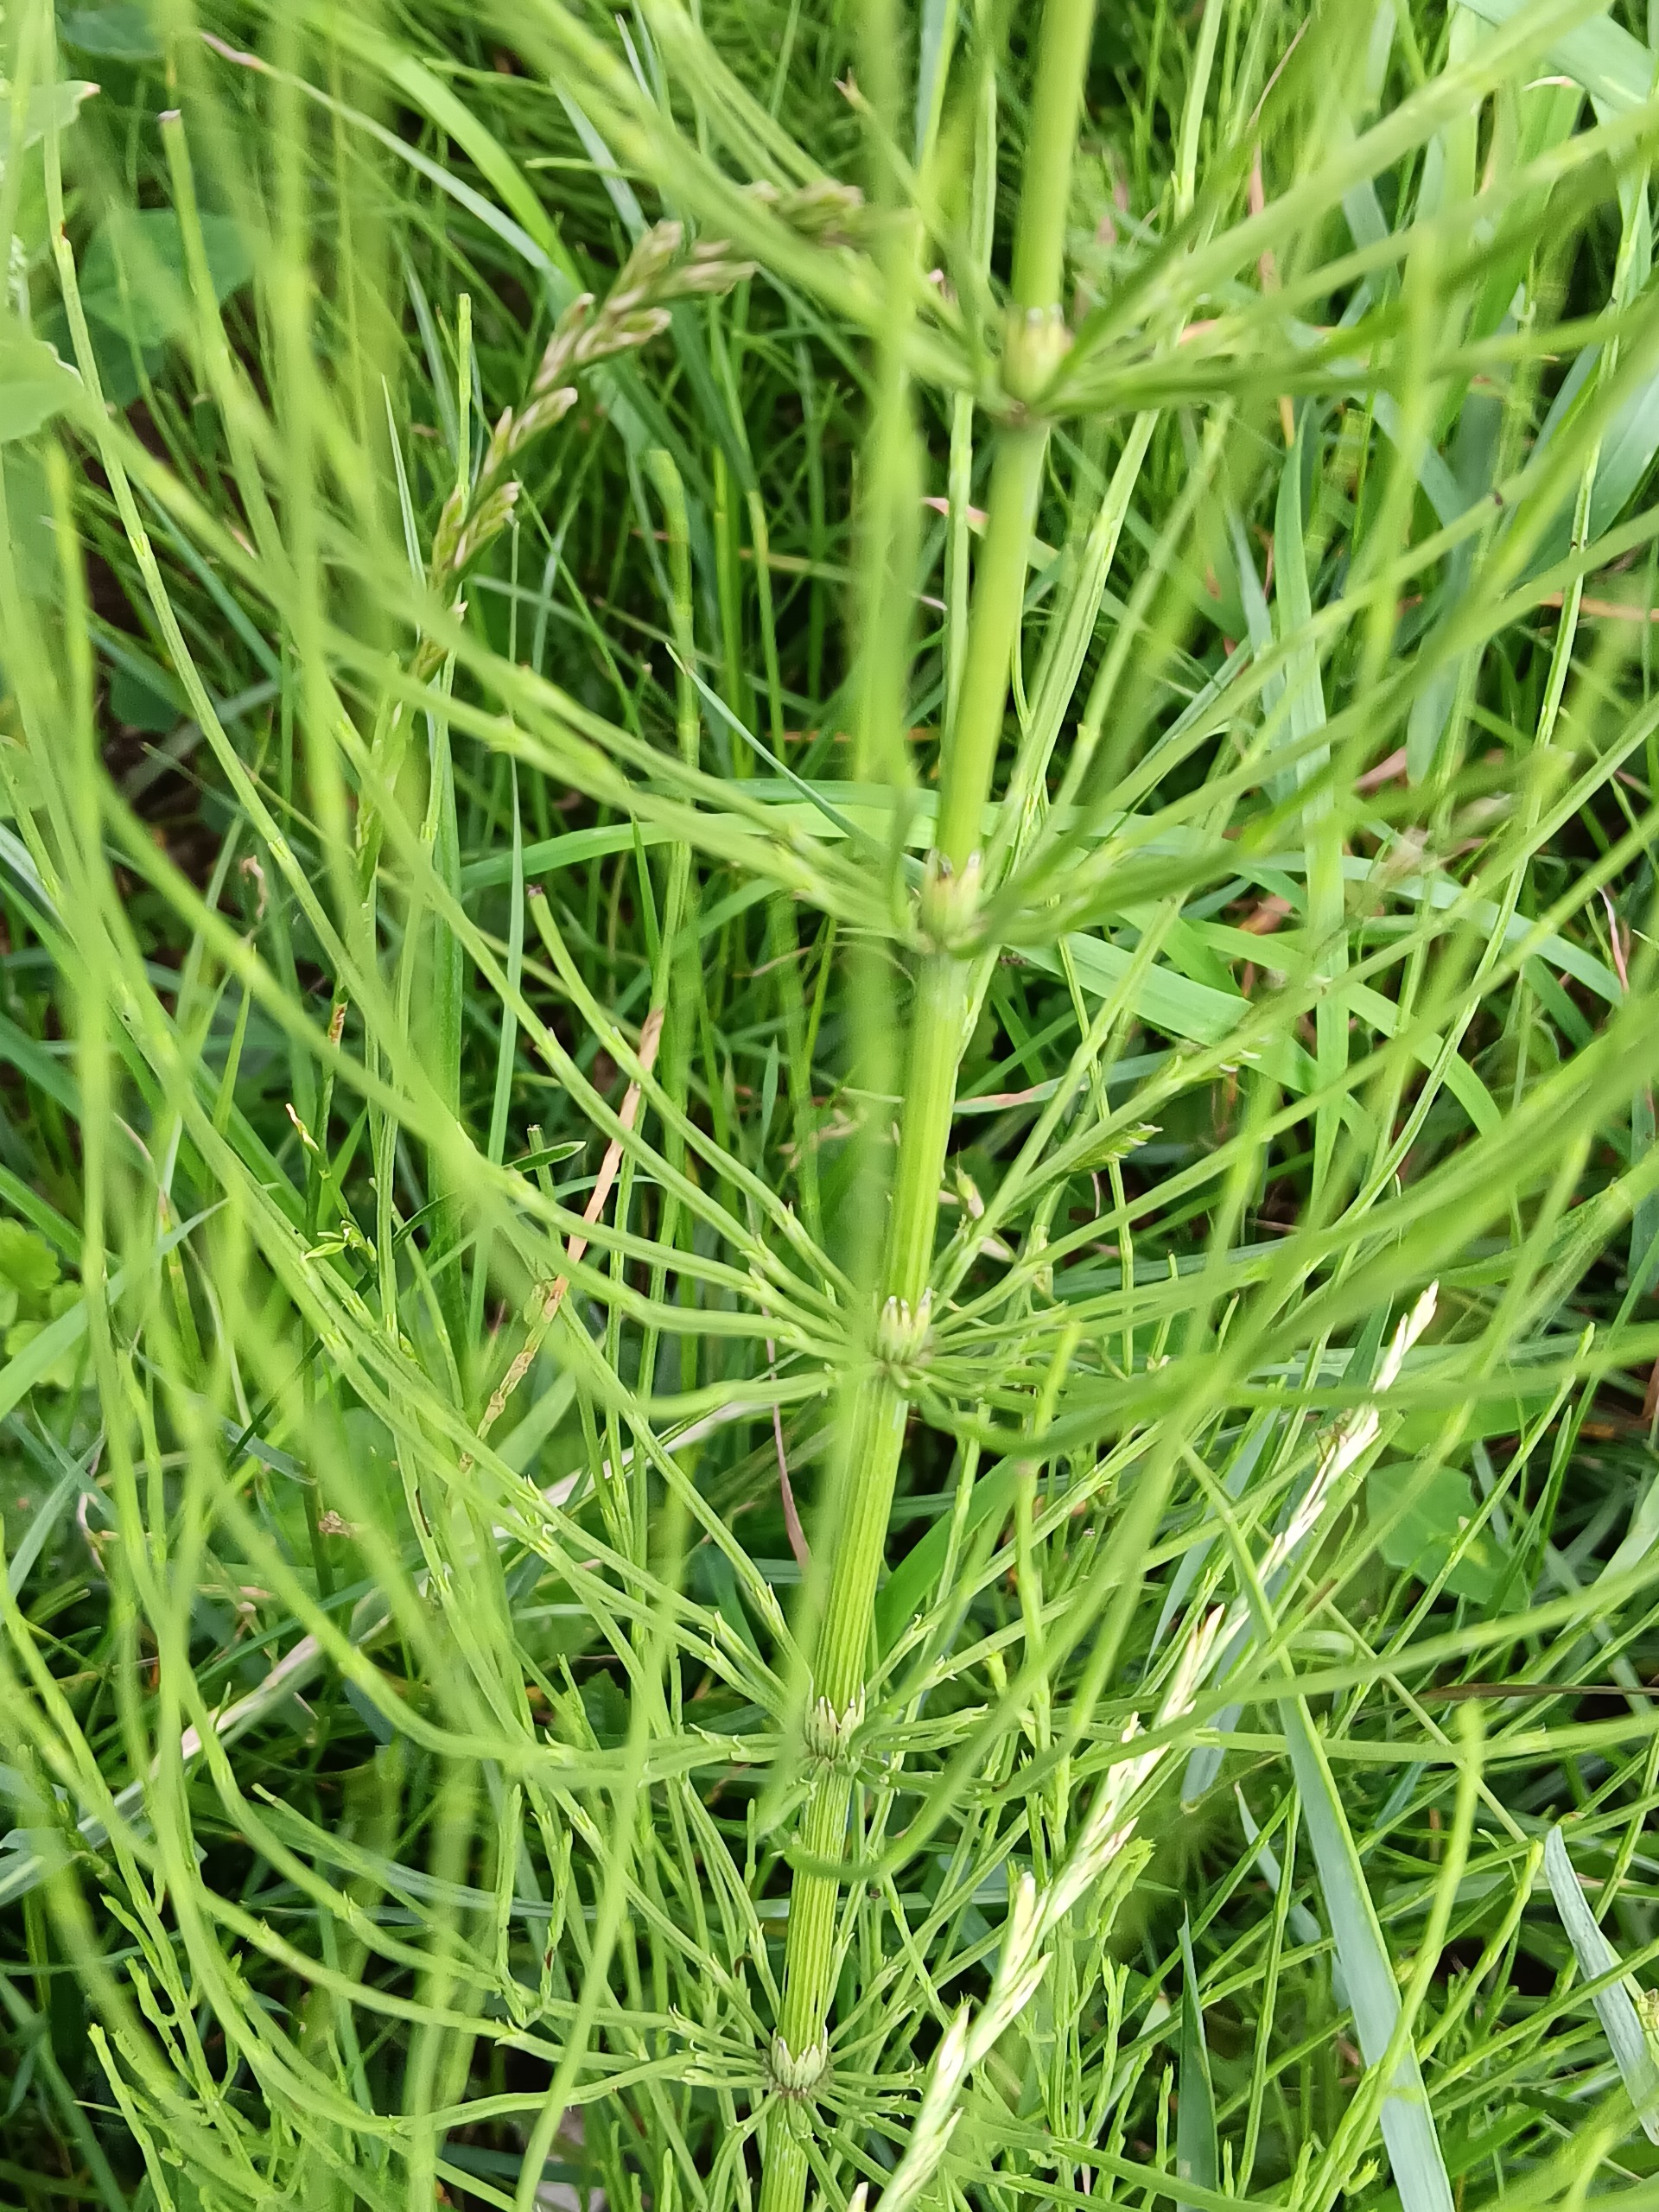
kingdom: Plantae
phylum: Tracheophyta
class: Polypodiopsida
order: Equisetales
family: Equisetaceae
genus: Equisetum
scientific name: Equisetum arvense
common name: Ager-padderok
